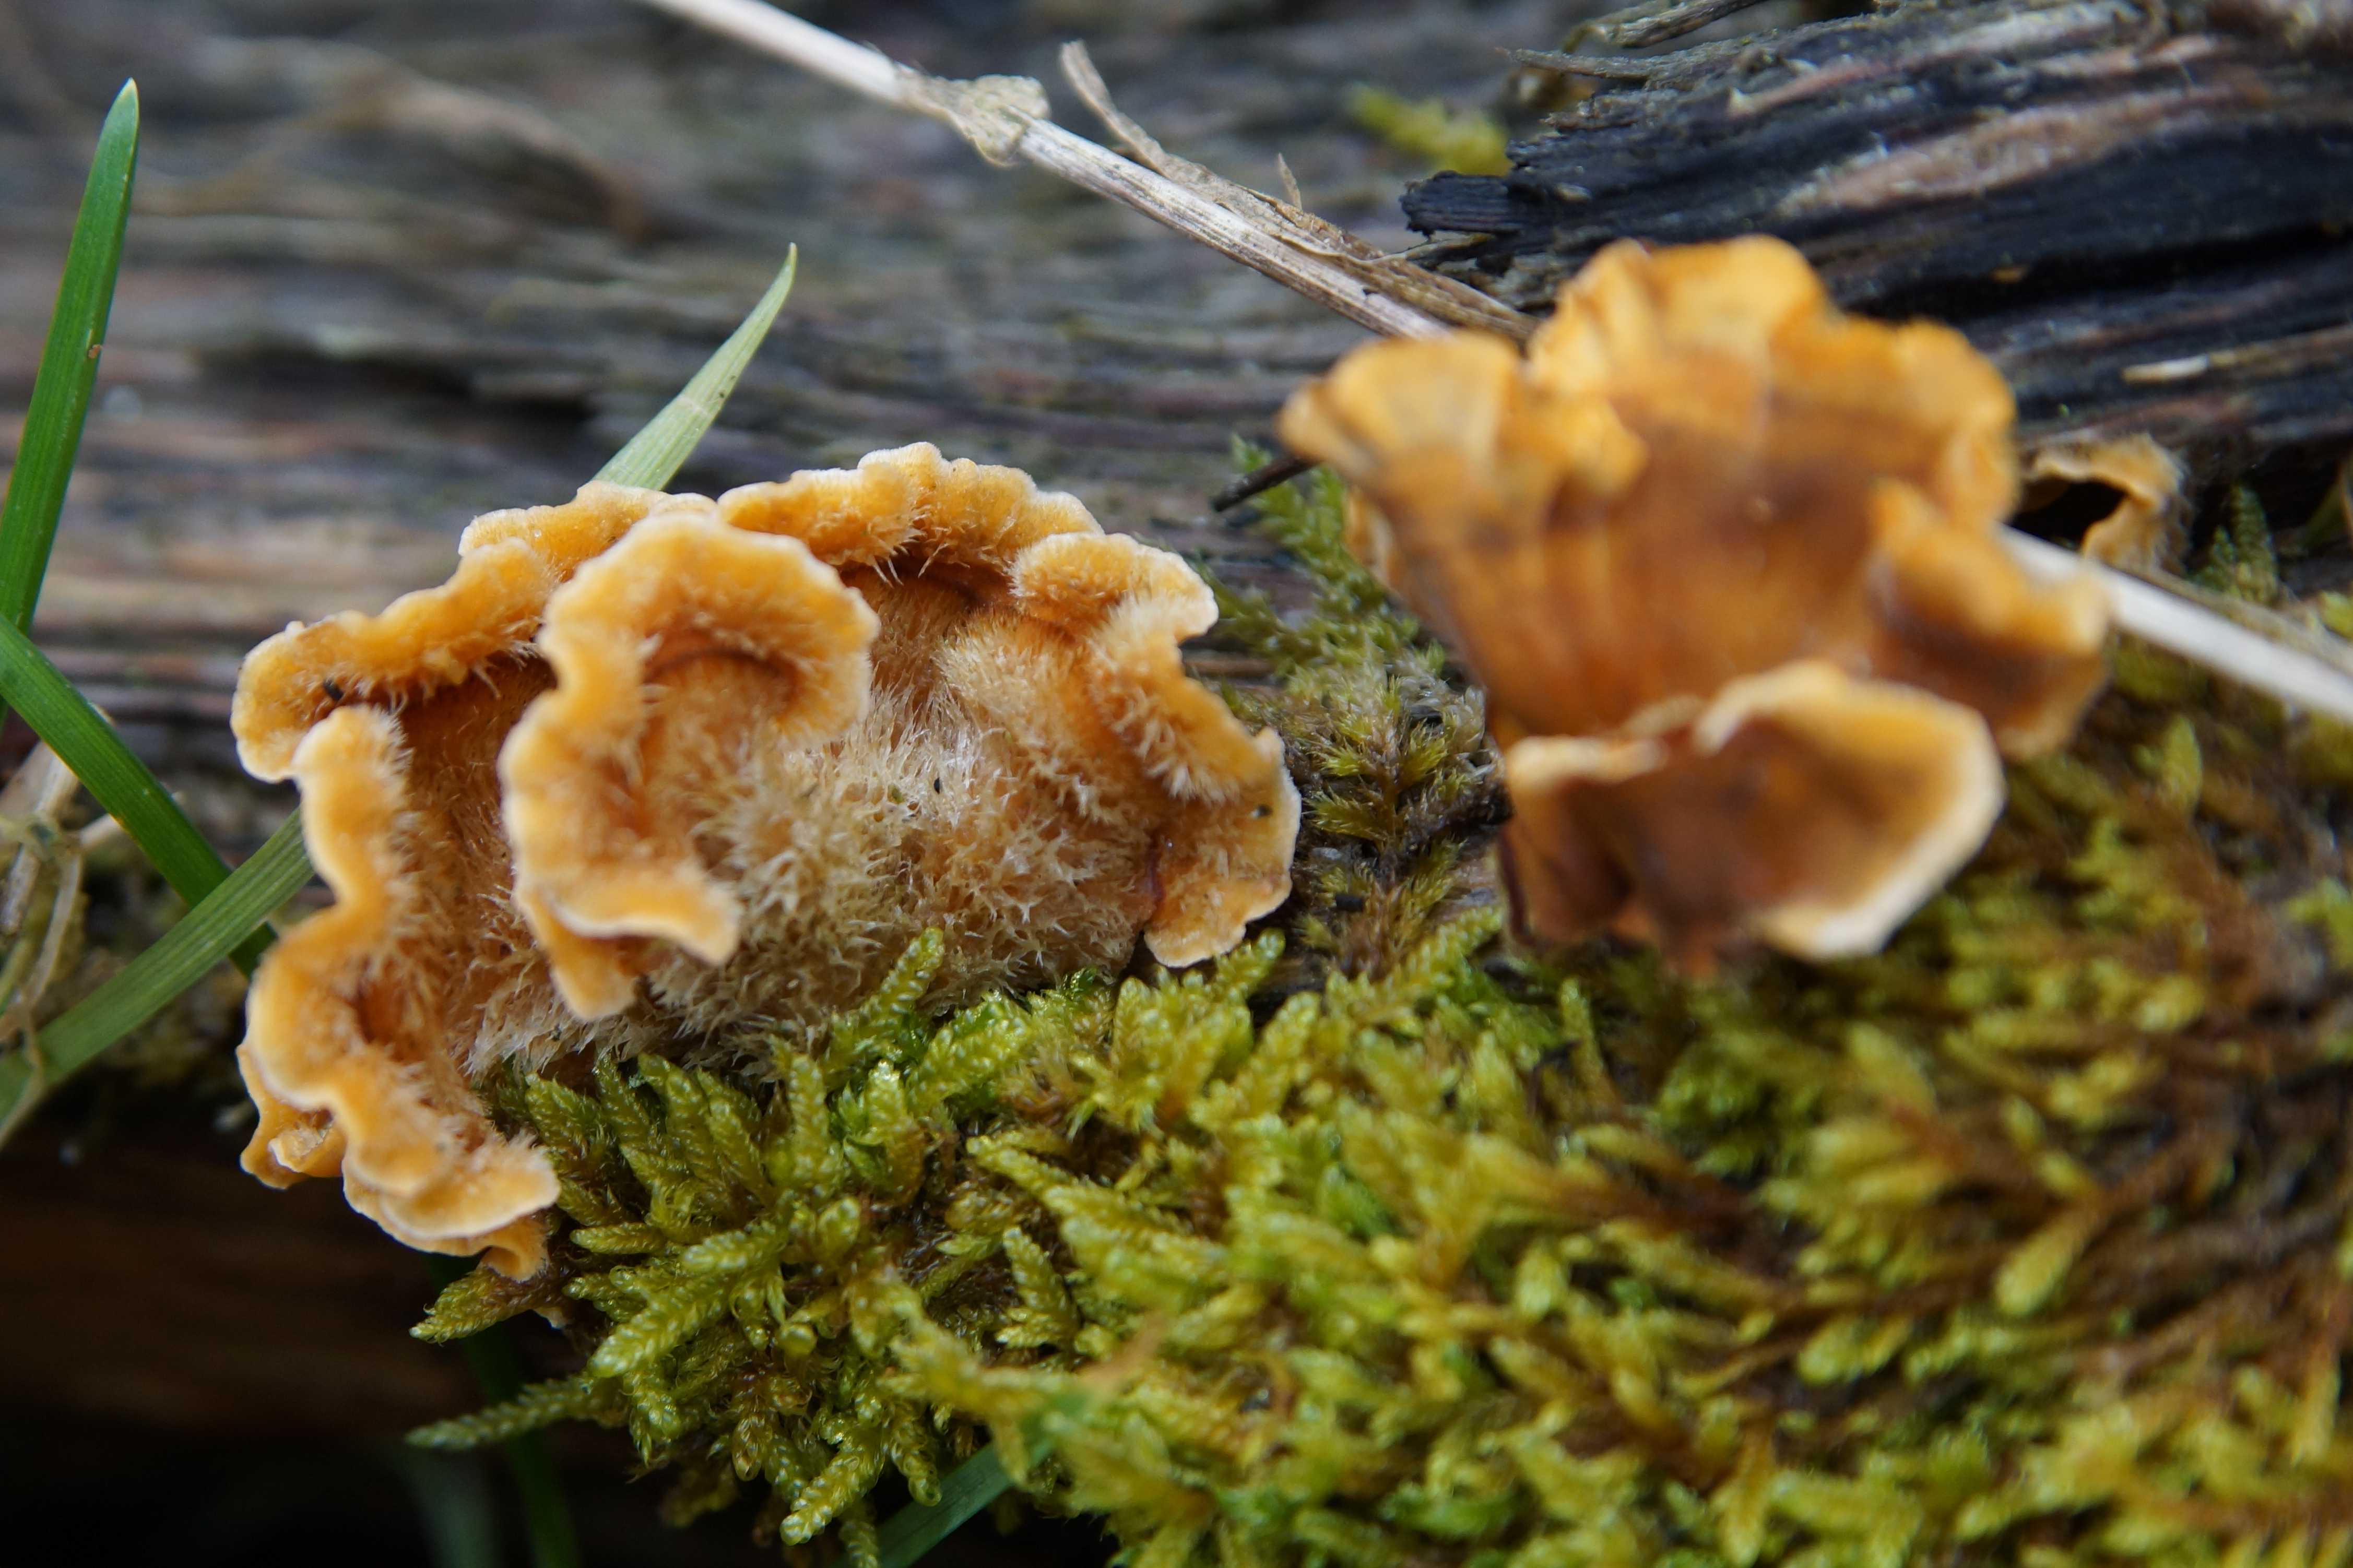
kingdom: Fungi
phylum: Basidiomycota
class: Agaricomycetes
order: Russulales
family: Stereaceae
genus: Stereum
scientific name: Stereum hirsutum
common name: håret lædersvamp
